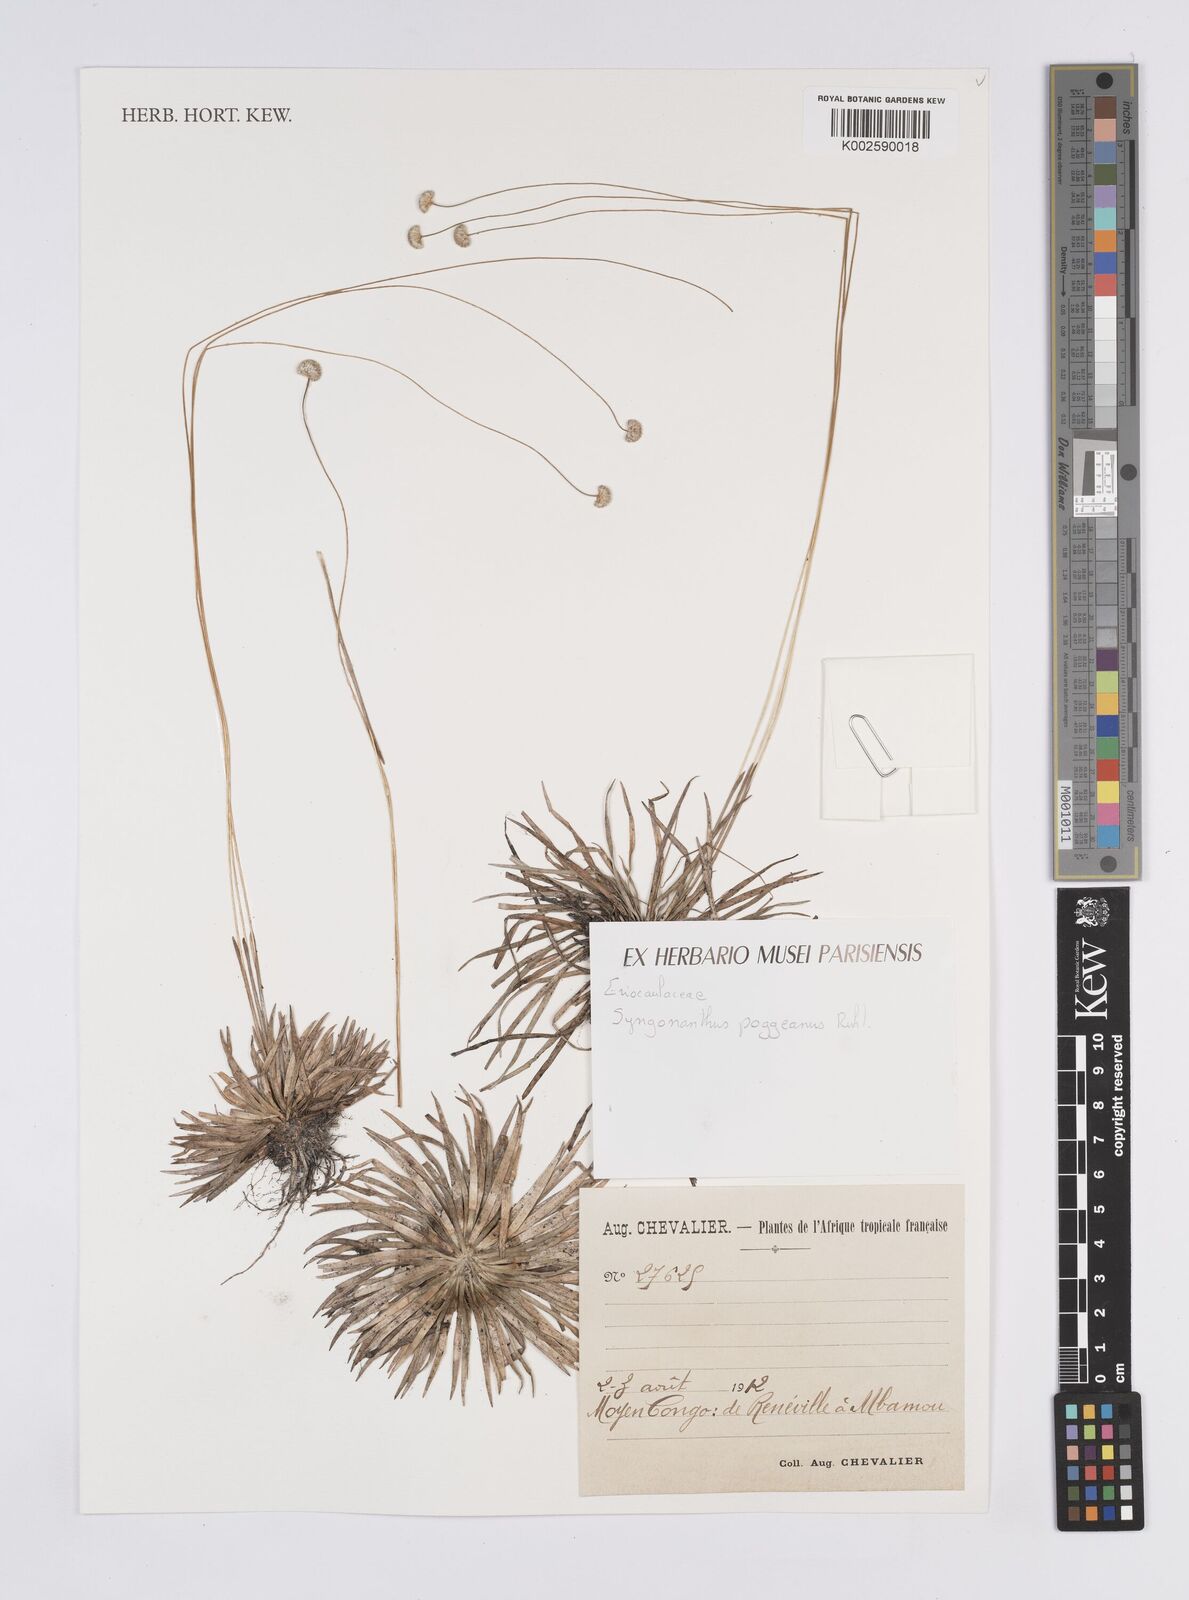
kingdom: Plantae
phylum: Tracheophyta
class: Liliopsida
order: Poales
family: Eriocaulaceae
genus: Syngonanthus
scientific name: Syngonanthus poggeanus
